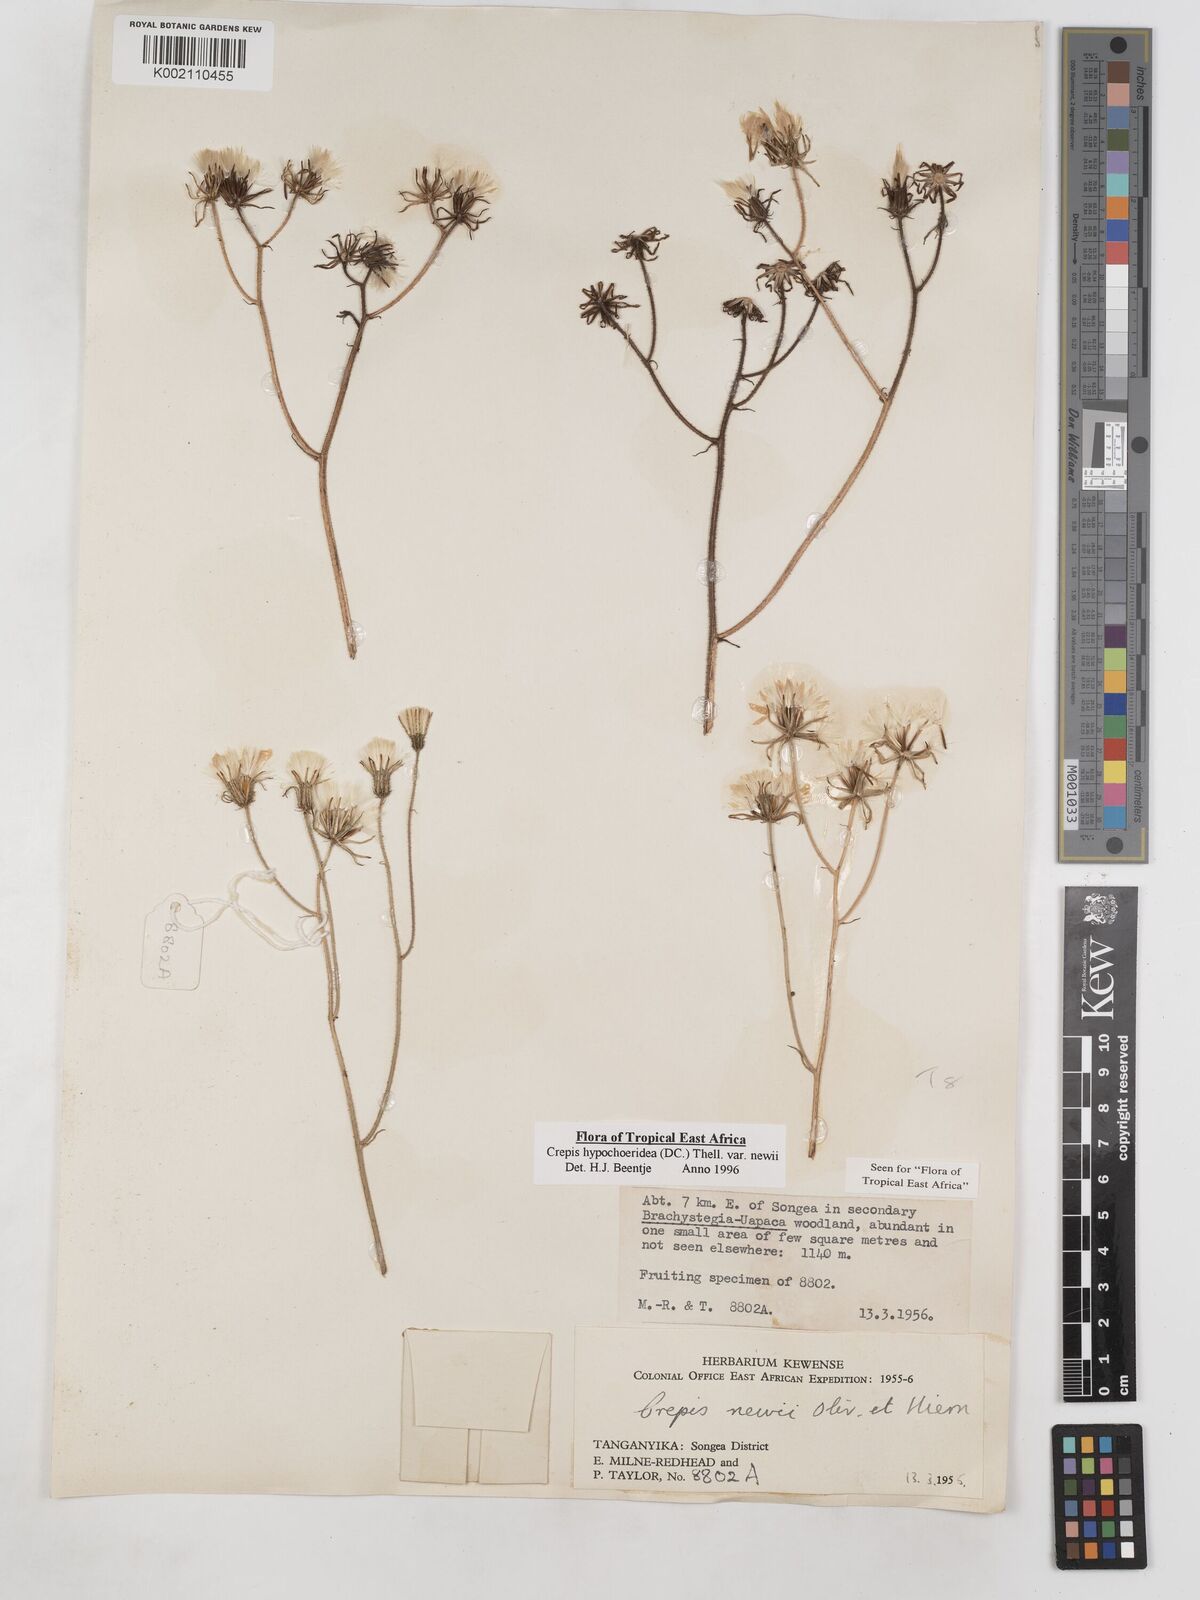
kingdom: Plantae
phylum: Tracheophyta
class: Magnoliopsida
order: Asterales
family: Asteraceae
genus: Crepis
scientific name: Crepis hypochoeridea
